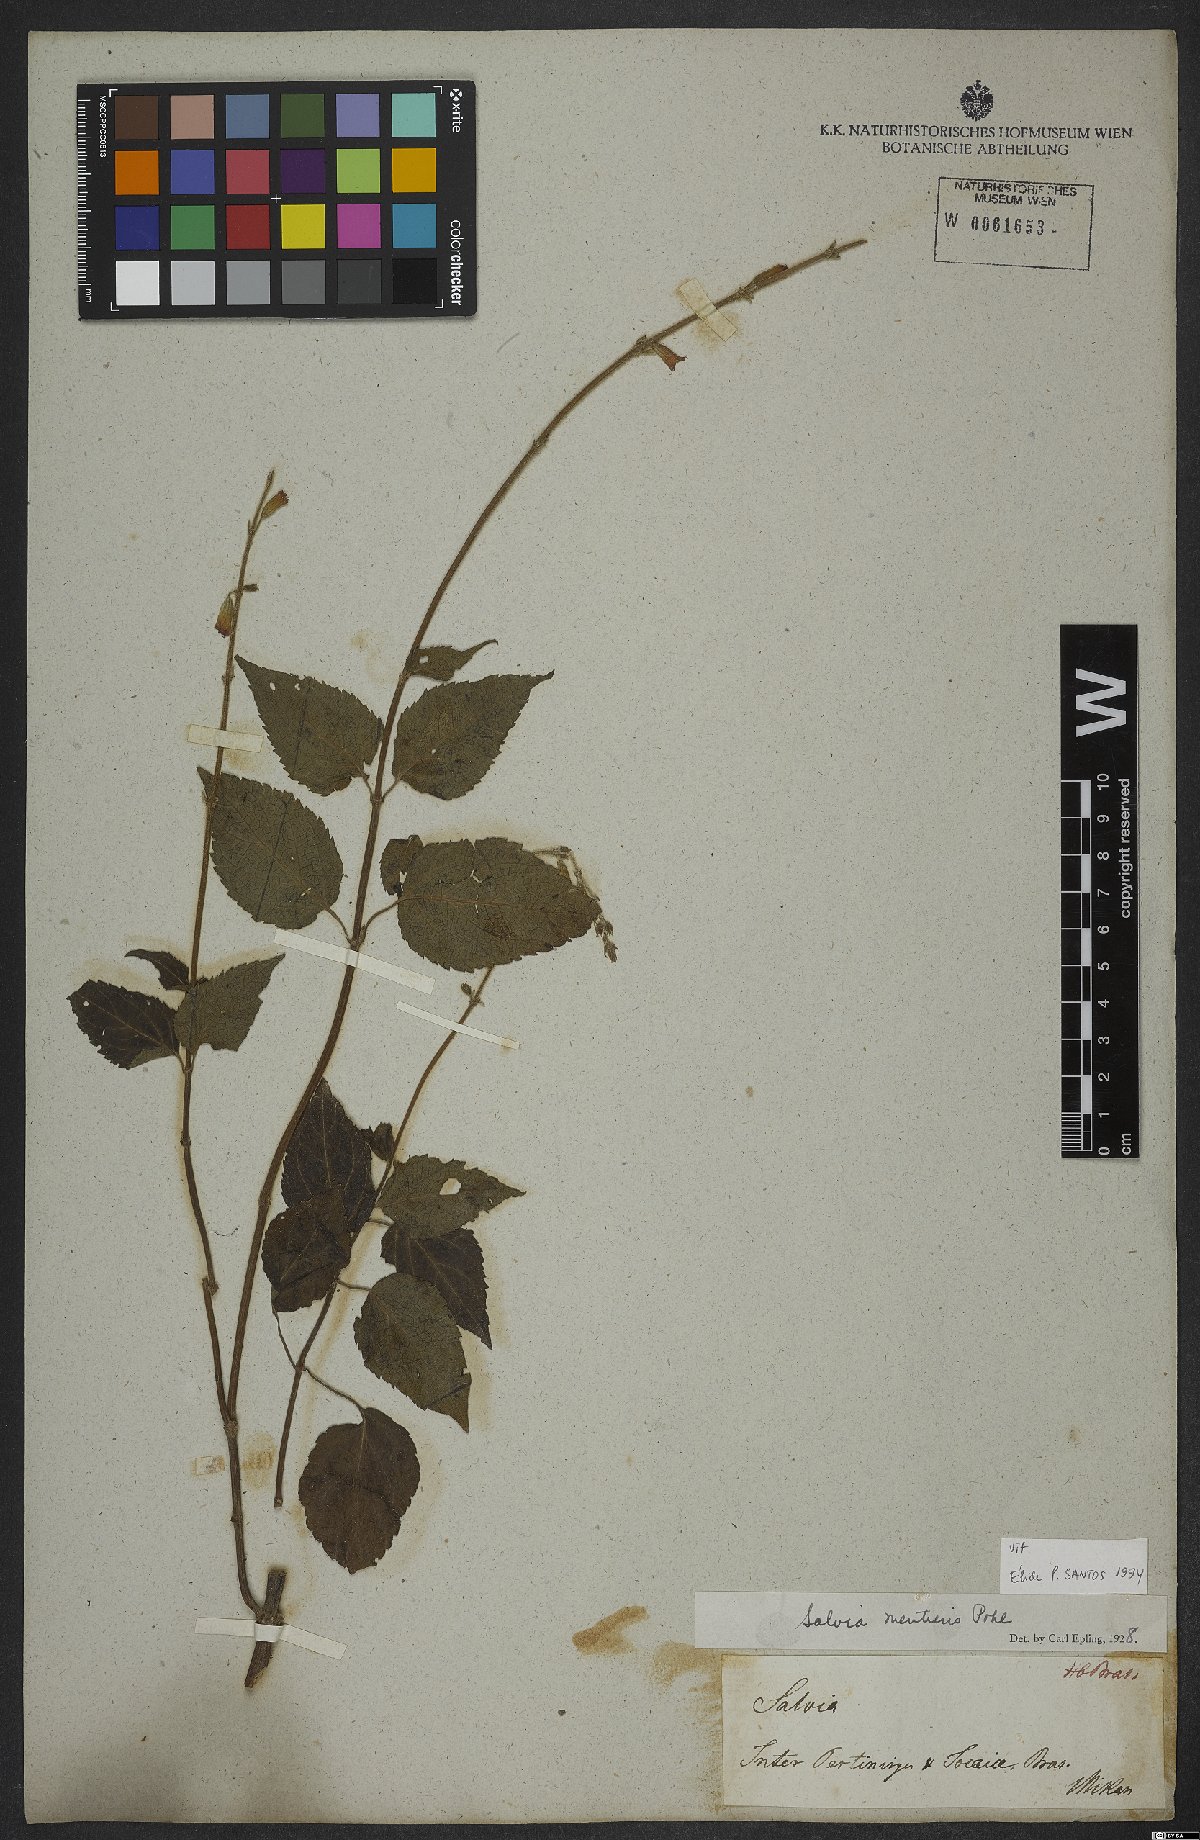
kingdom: Plantae
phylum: Tracheophyta
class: Magnoliopsida
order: Lamiales
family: Lamiaceae
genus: Salvia
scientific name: Salvia mentiens
